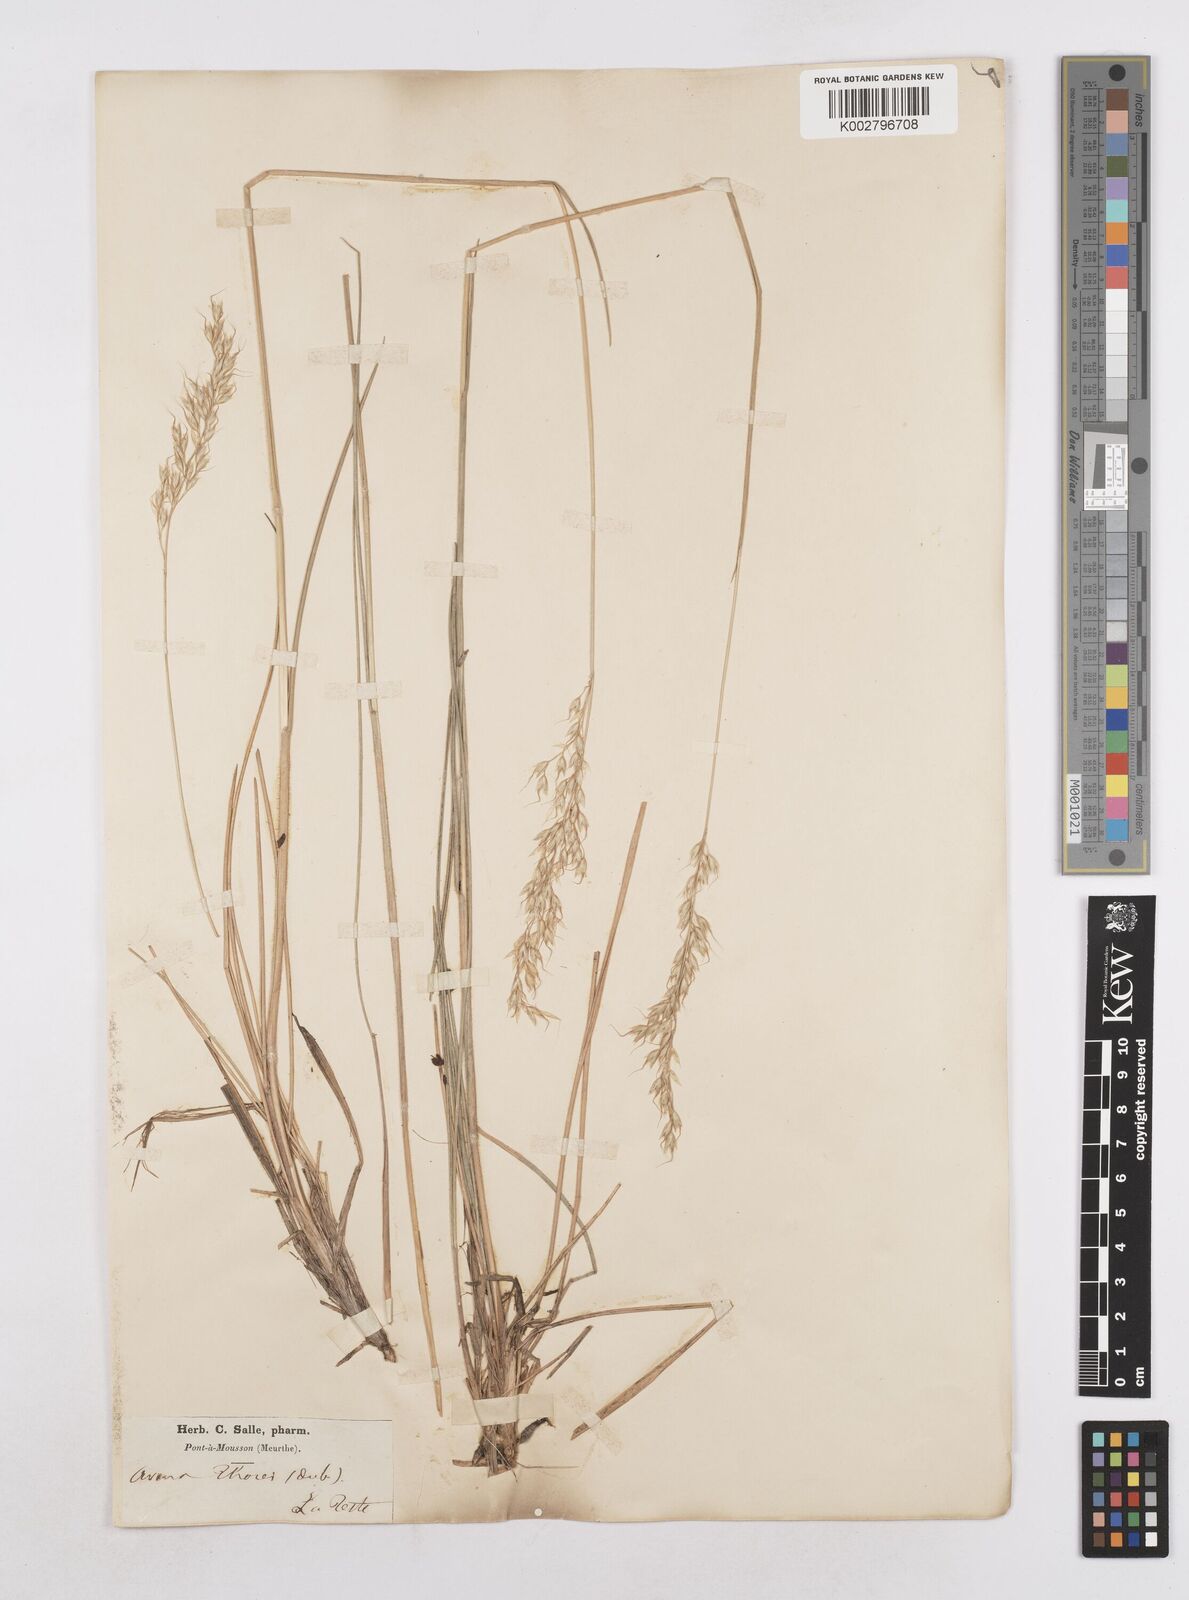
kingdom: Plantae
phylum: Tracheophyta
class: Liliopsida
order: Poales
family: Poaceae
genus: Arrhenatherum
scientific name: Arrhenatherum longifolium
